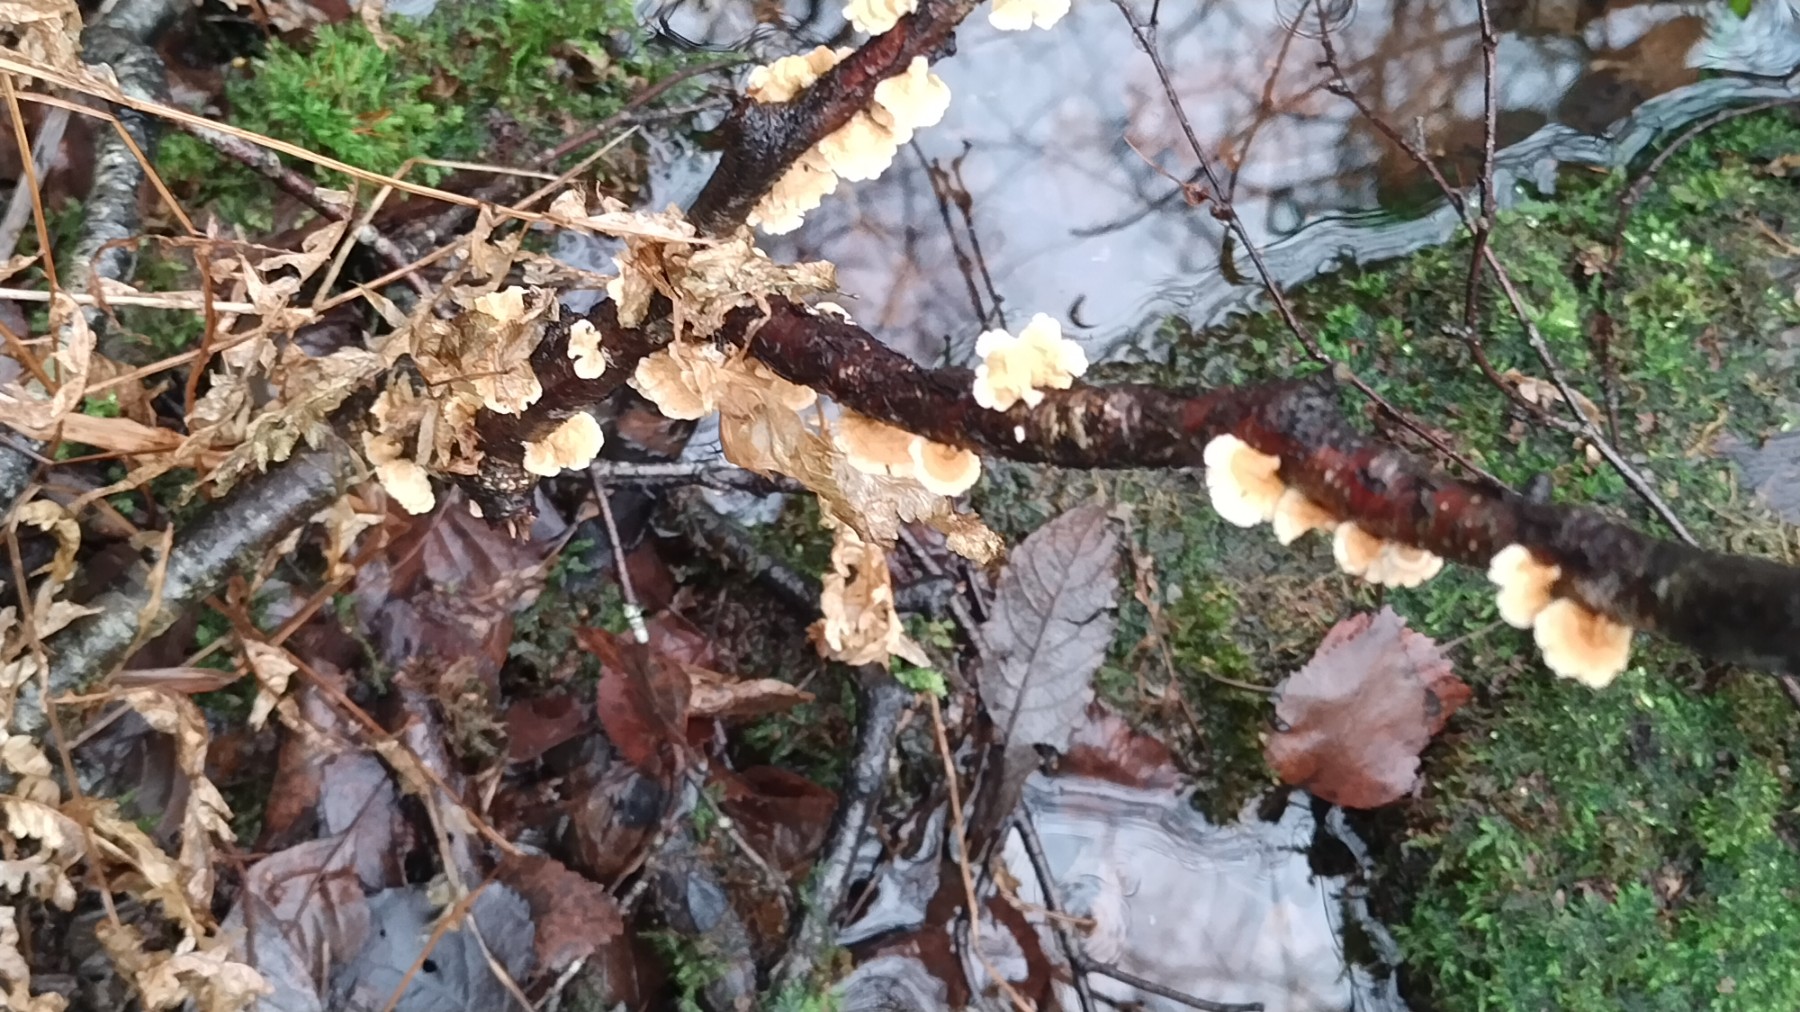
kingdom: Fungi
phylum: Basidiomycota
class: Agaricomycetes
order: Amylocorticiales
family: Amylocorticiaceae
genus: Plicaturopsis
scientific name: Plicaturopsis crispa
